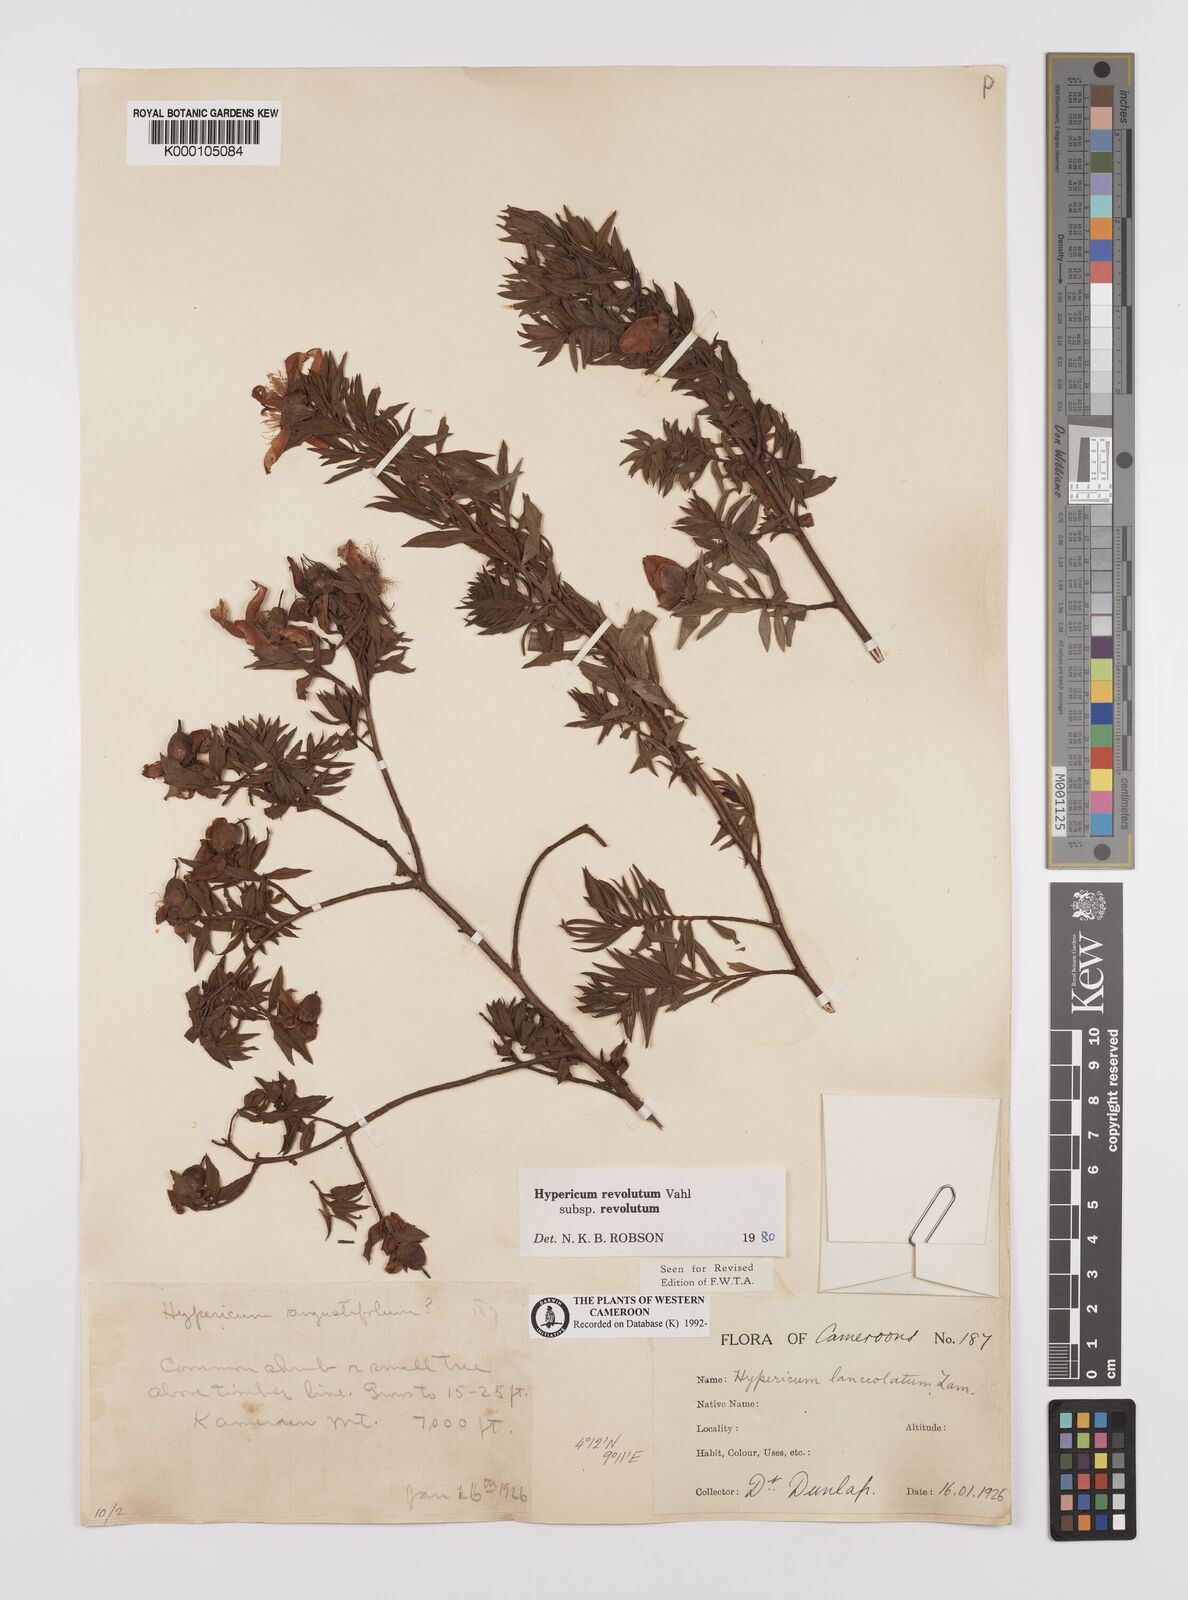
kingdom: Plantae
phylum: Tracheophyta
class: Magnoliopsida
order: Malpighiales
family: Hypericaceae
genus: Hypericum
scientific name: Hypericum revolutum
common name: Curry bush
